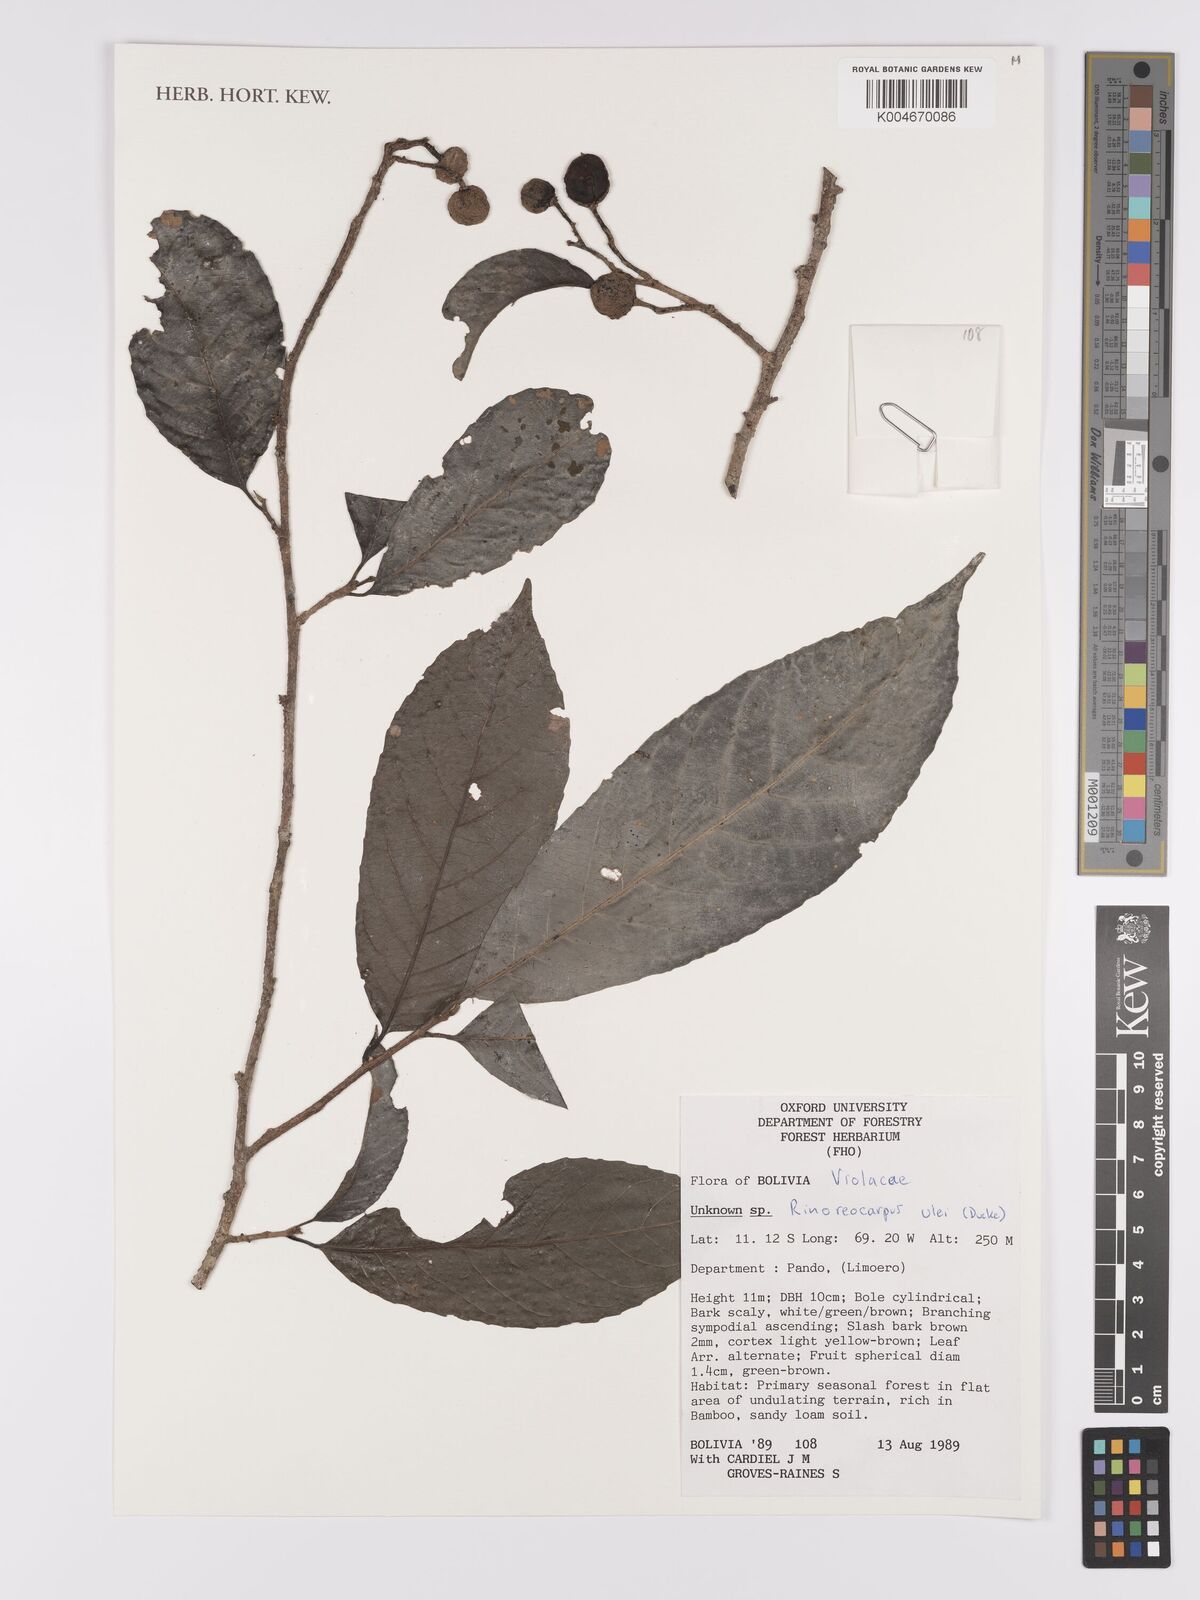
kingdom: Plantae
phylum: Tracheophyta
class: Magnoliopsida
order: Malpighiales
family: Violaceae
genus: Rinoreocarpus
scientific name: Rinoreocarpus ulei
